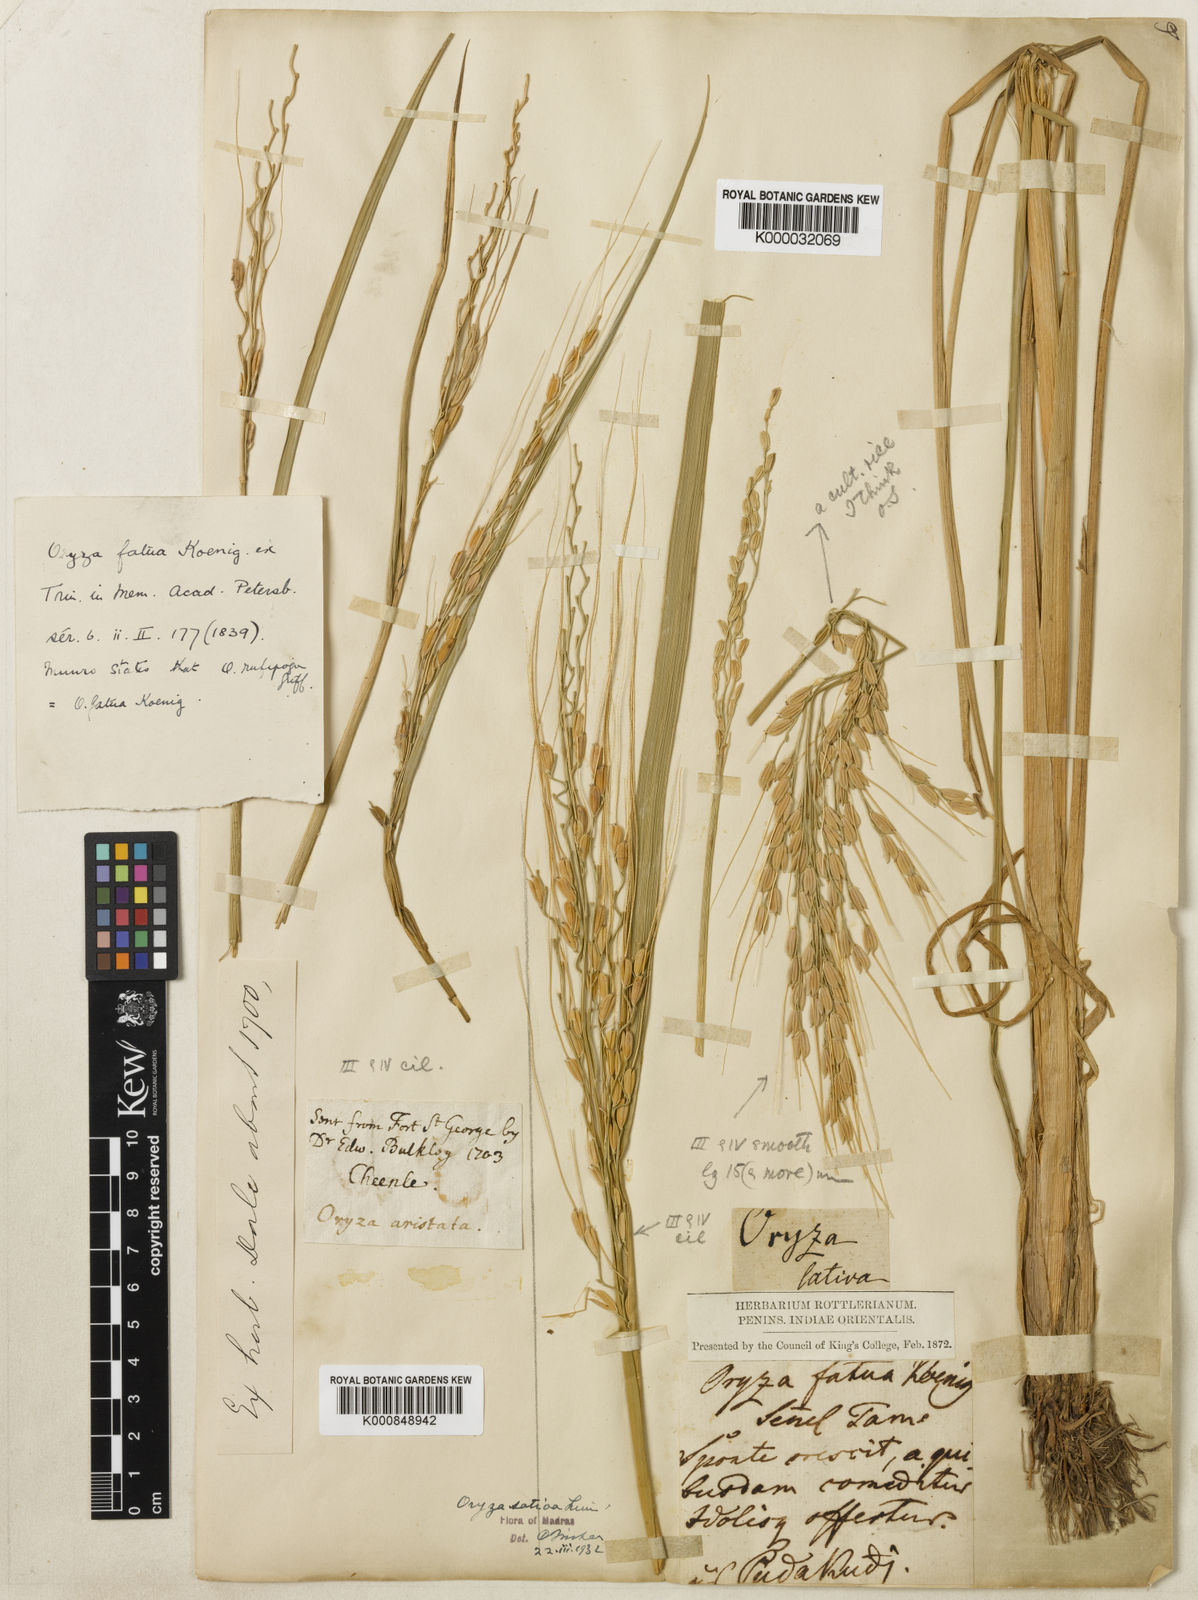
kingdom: Plantae
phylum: Tracheophyta
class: Liliopsida
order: Poales
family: Poaceae
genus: Oryza
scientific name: Oryza rufipogon
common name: Red rice
